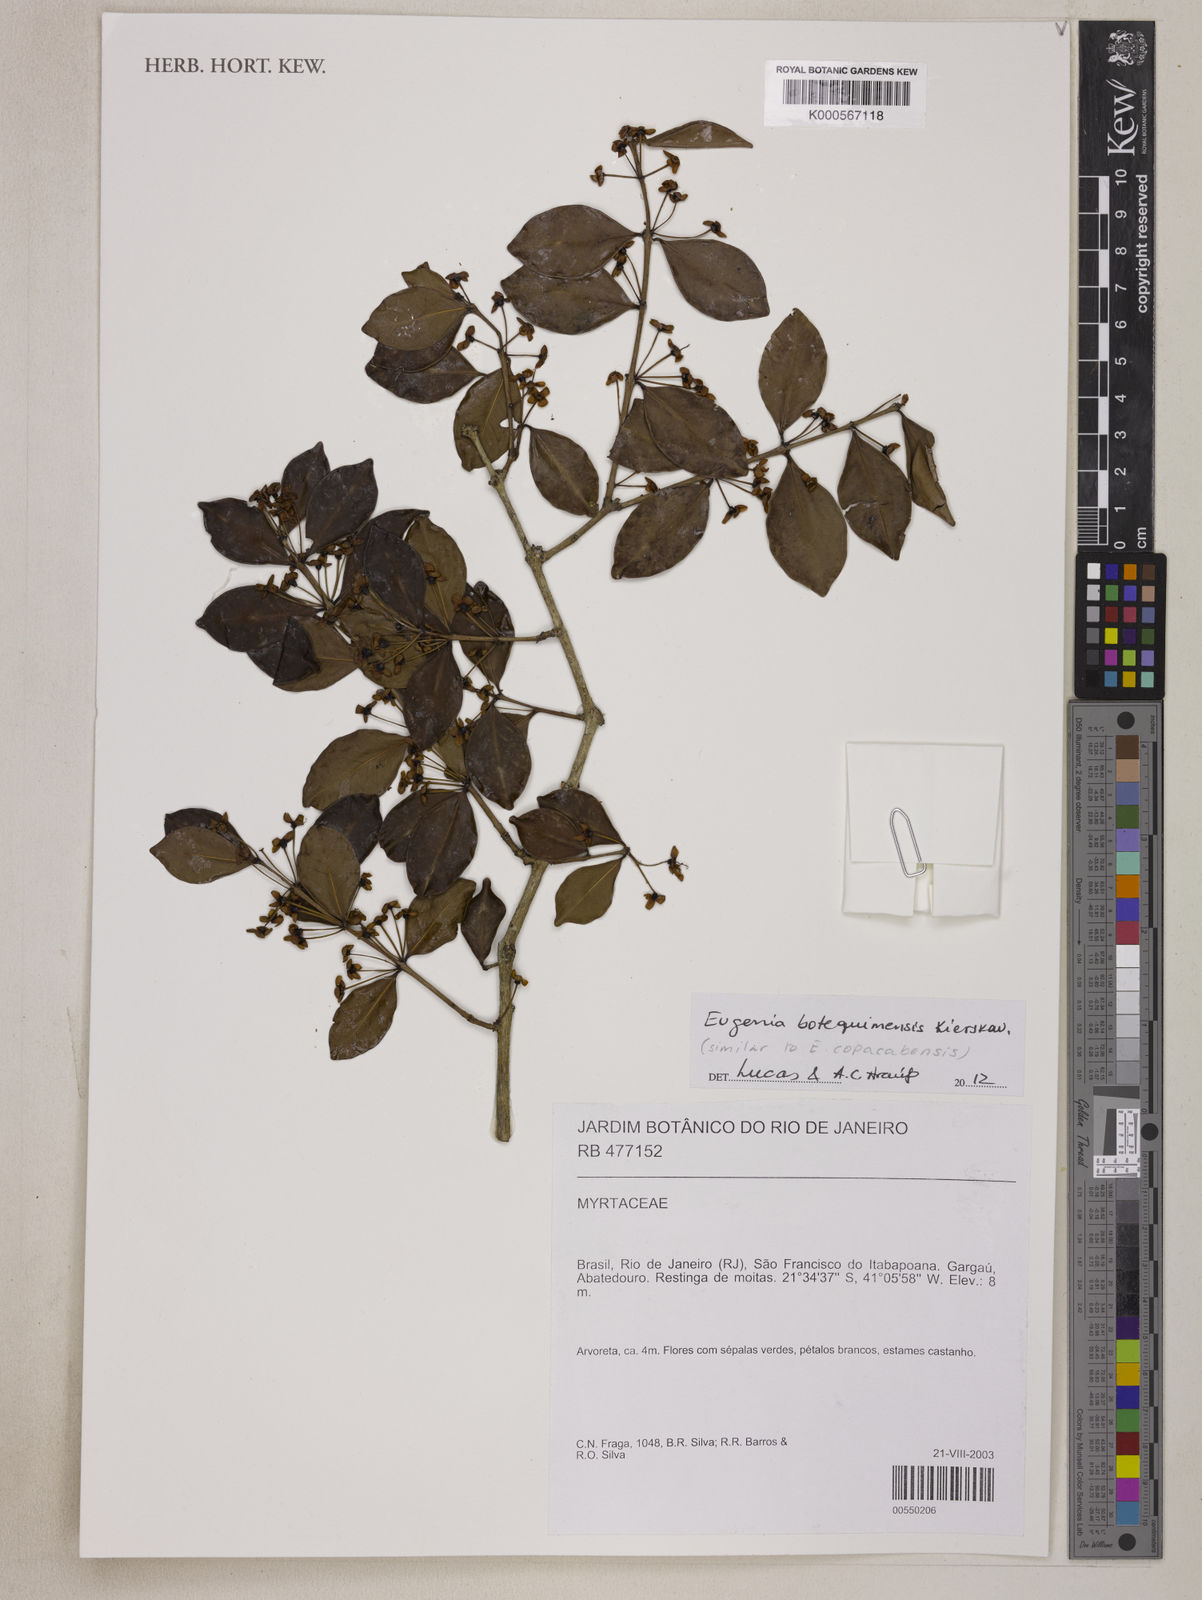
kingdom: Plantae
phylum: Tracheophyta
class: Magnoliopsida
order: Myrtales
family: Myrtaceae
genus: Eugenia
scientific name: Eugenia
